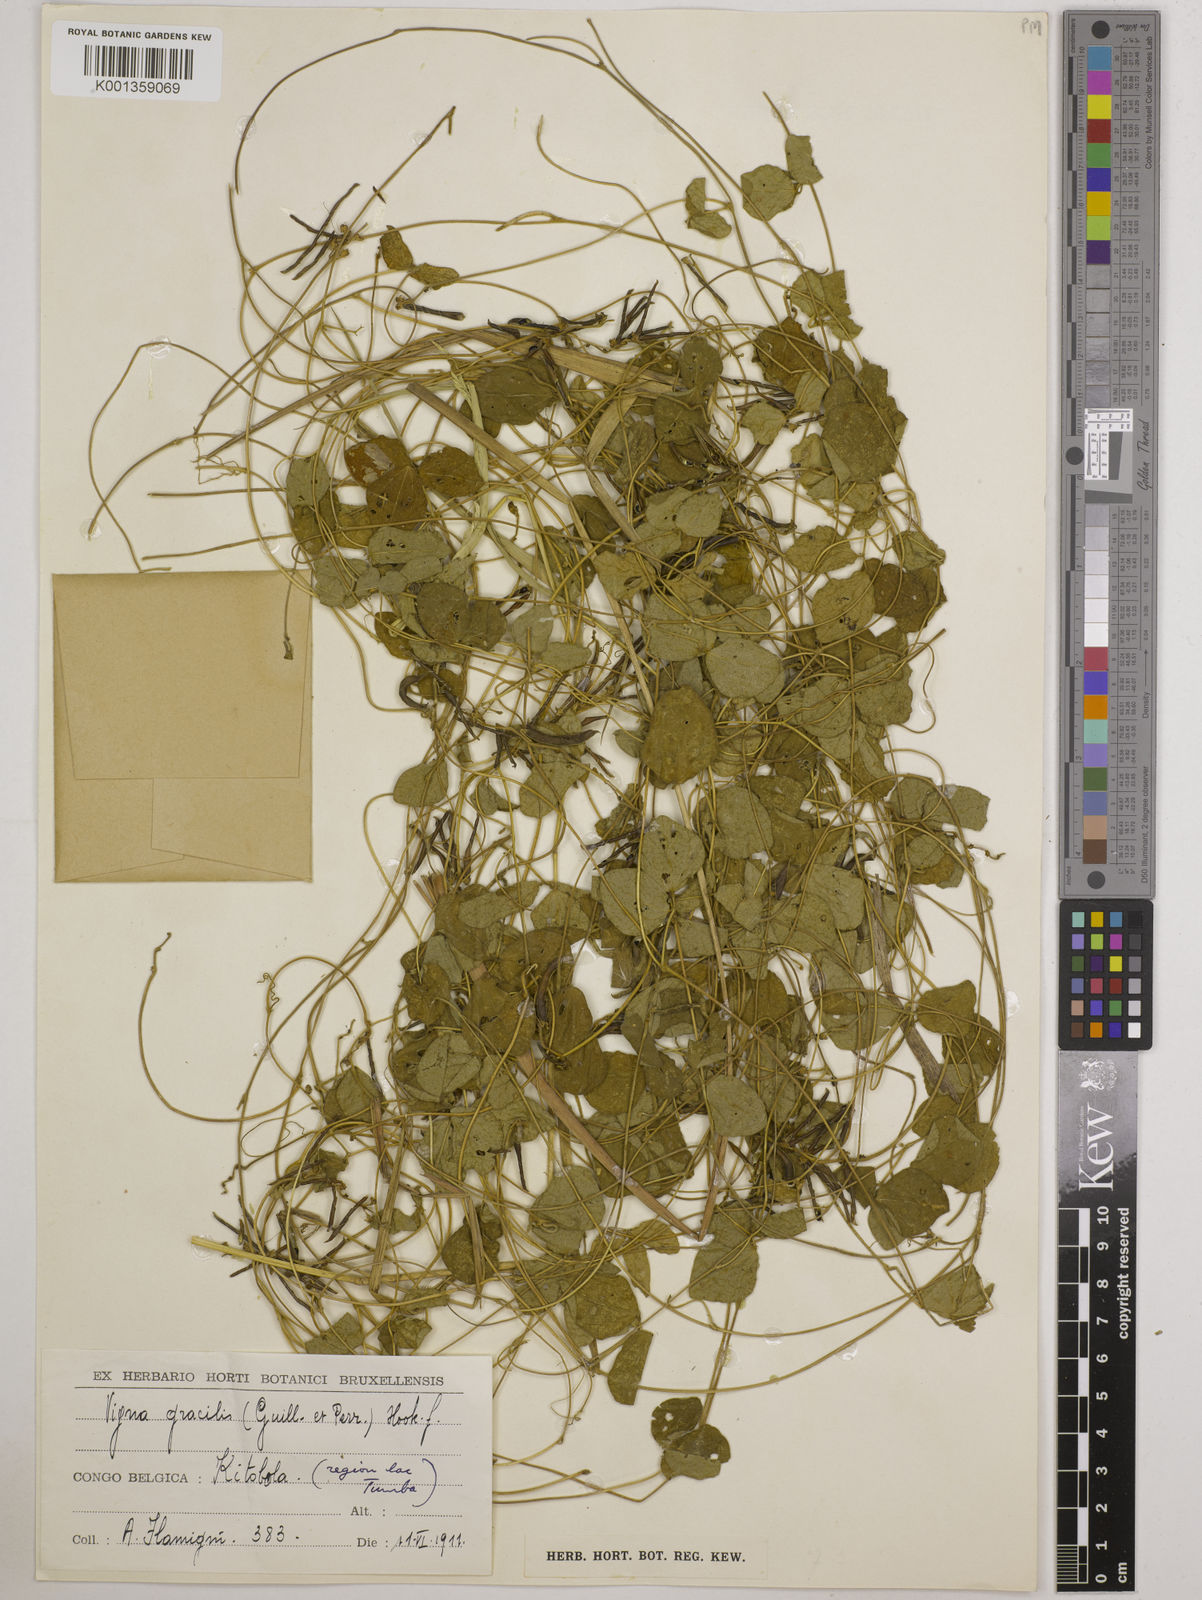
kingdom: Plantae
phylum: Tracheophyta
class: Magnoliopsida
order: Fabales
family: Fabaceae
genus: Vigna
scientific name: Vigna gracilis
